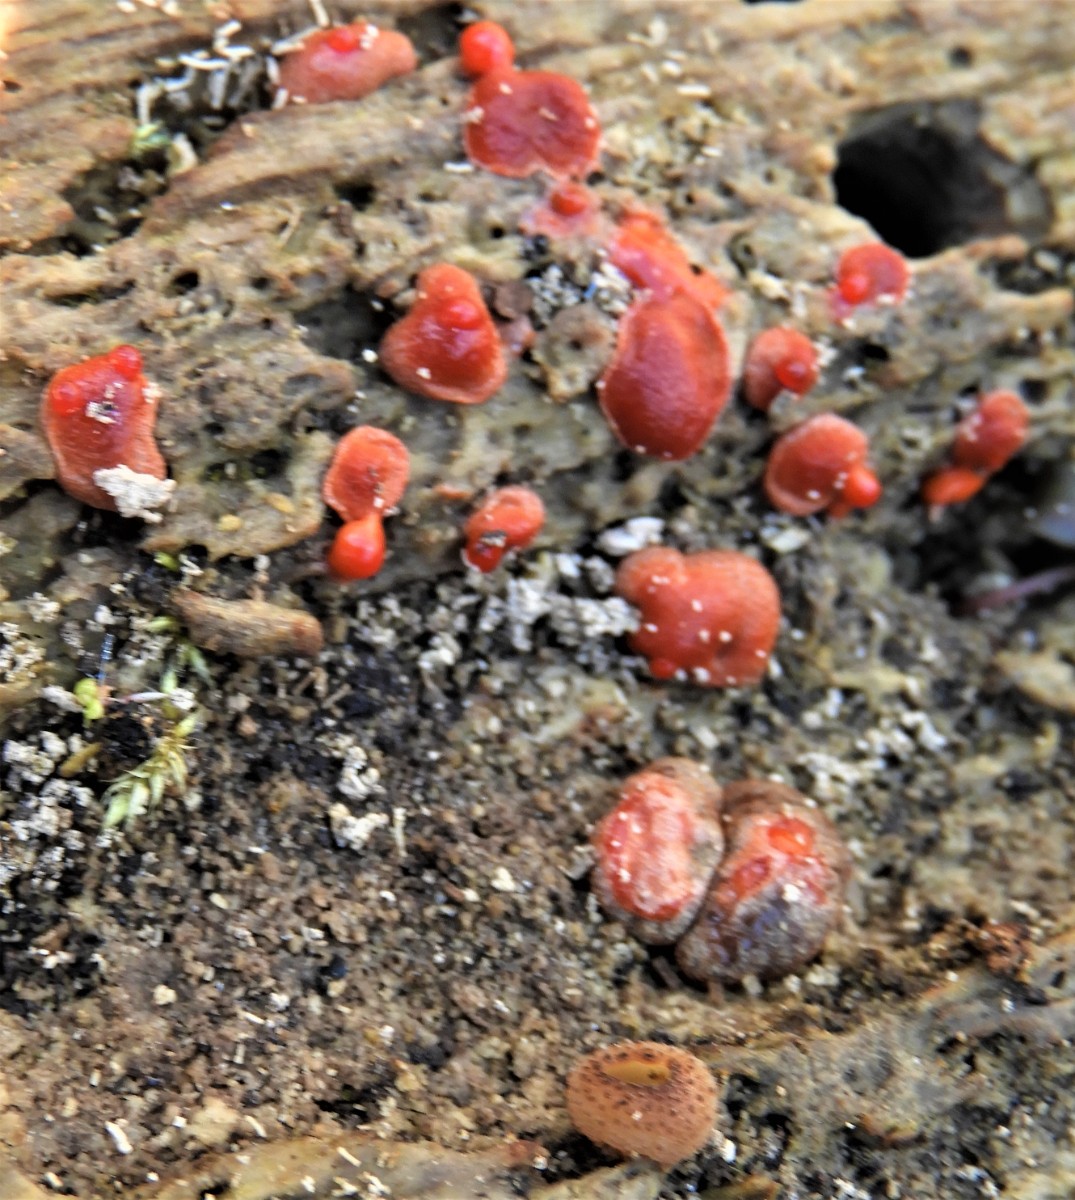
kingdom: Protozoa
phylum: Mycetozoa
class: Myxomycetes
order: Cribrariales
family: Tubiferaceae
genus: Lycogala
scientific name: Lycogala epidendrum
